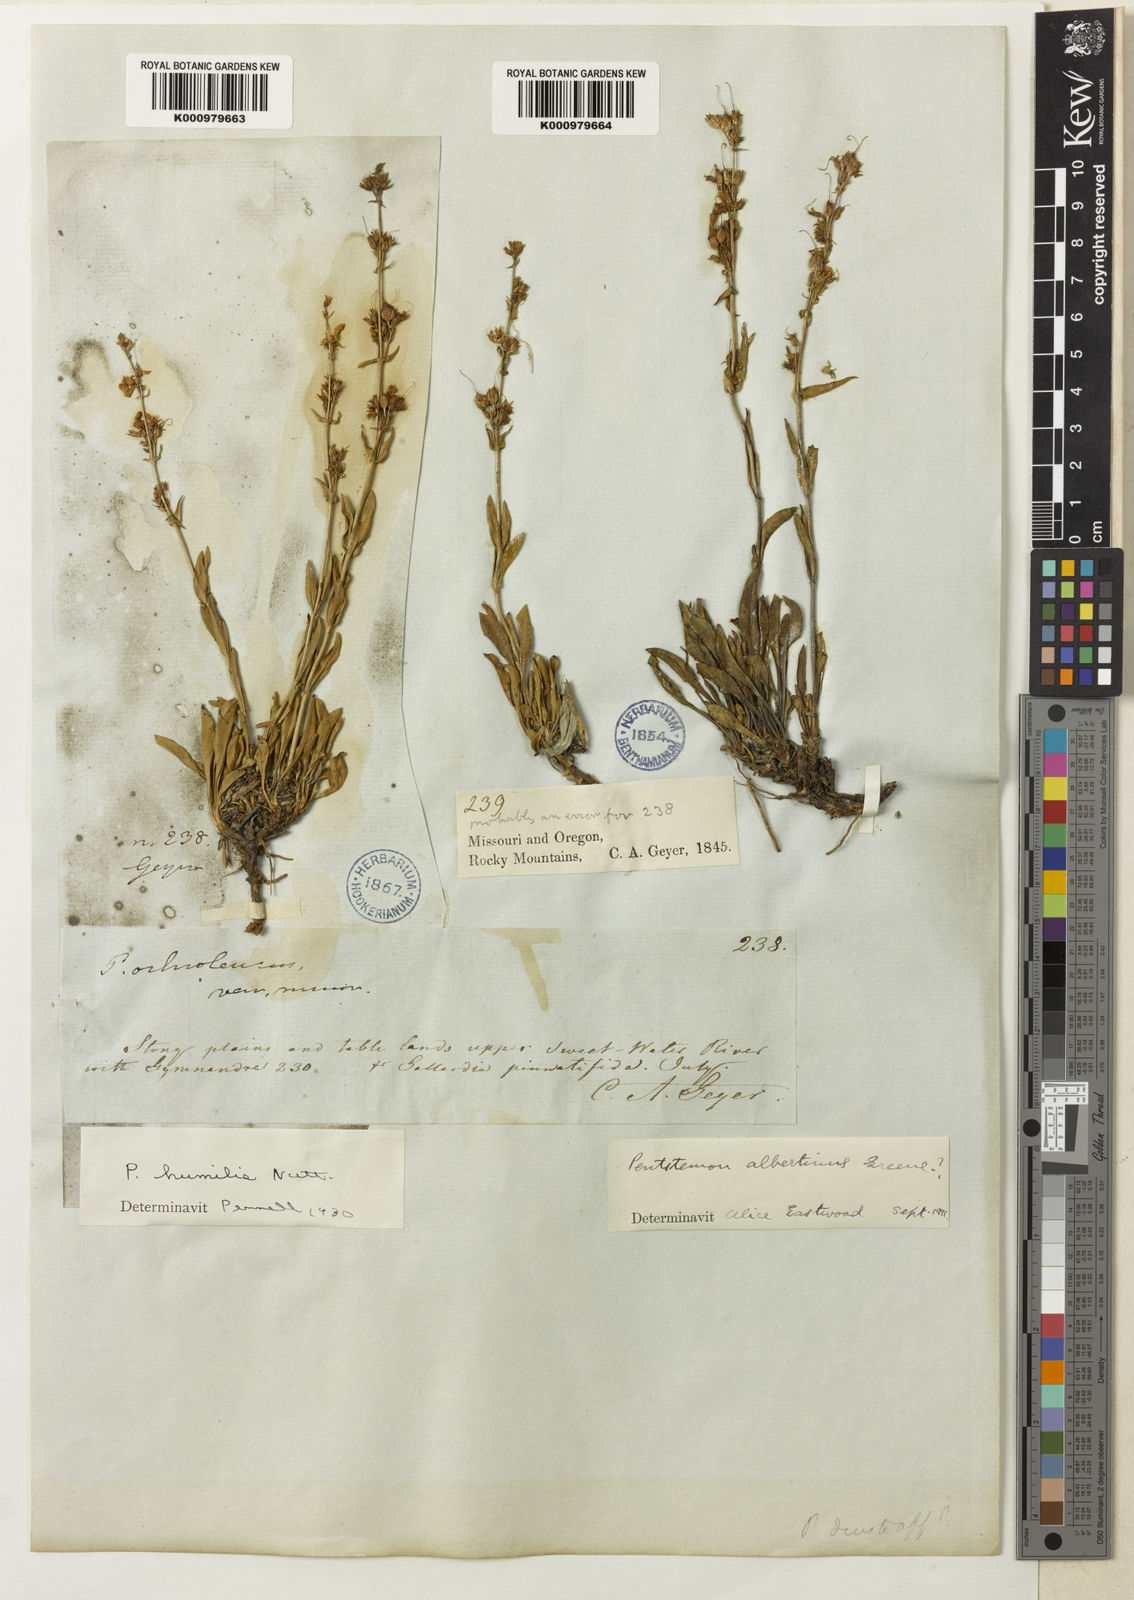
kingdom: Plantae
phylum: Tracheophyta
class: Magnoliopsida
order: Lamiales
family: Plantaginaceae
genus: Penstemon
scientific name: Penstemon humilis
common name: Low penstemon
